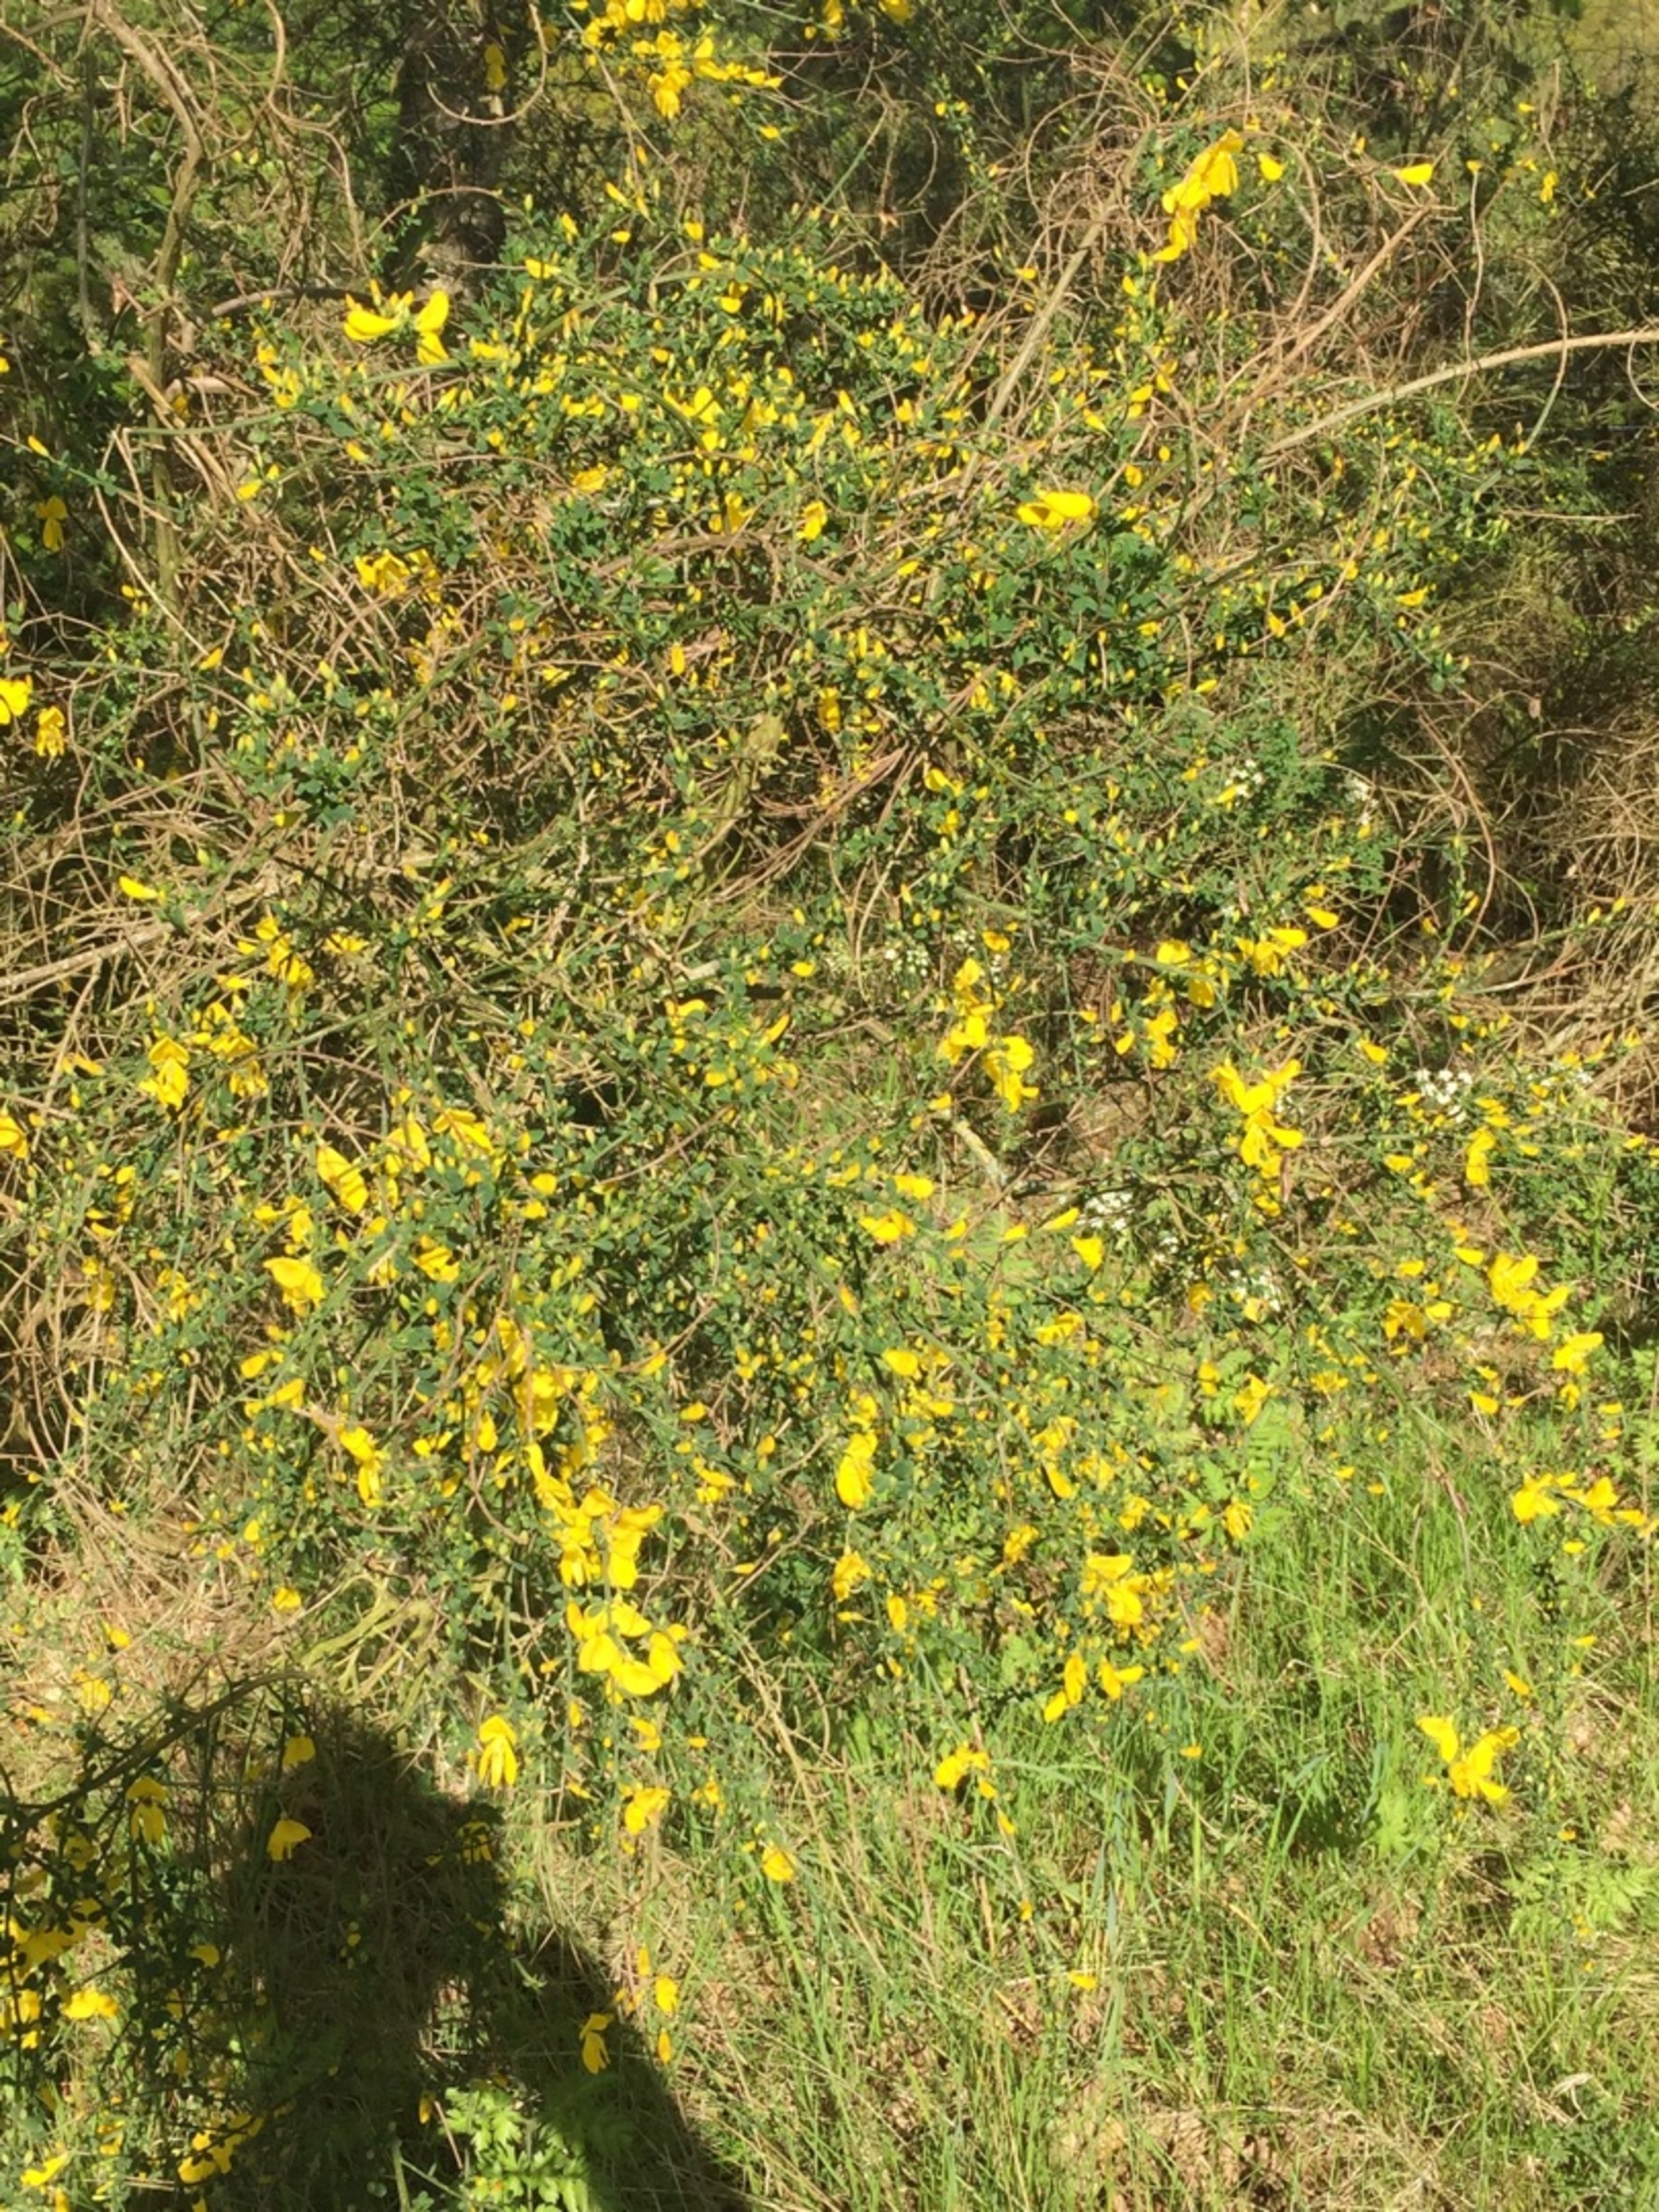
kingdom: Plantae
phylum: Tracheophyta
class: Magnoliopsida
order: Fabales
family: Fabaceae
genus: Cytisus
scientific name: Cytisus scoparius
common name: Almindelig gyvel
